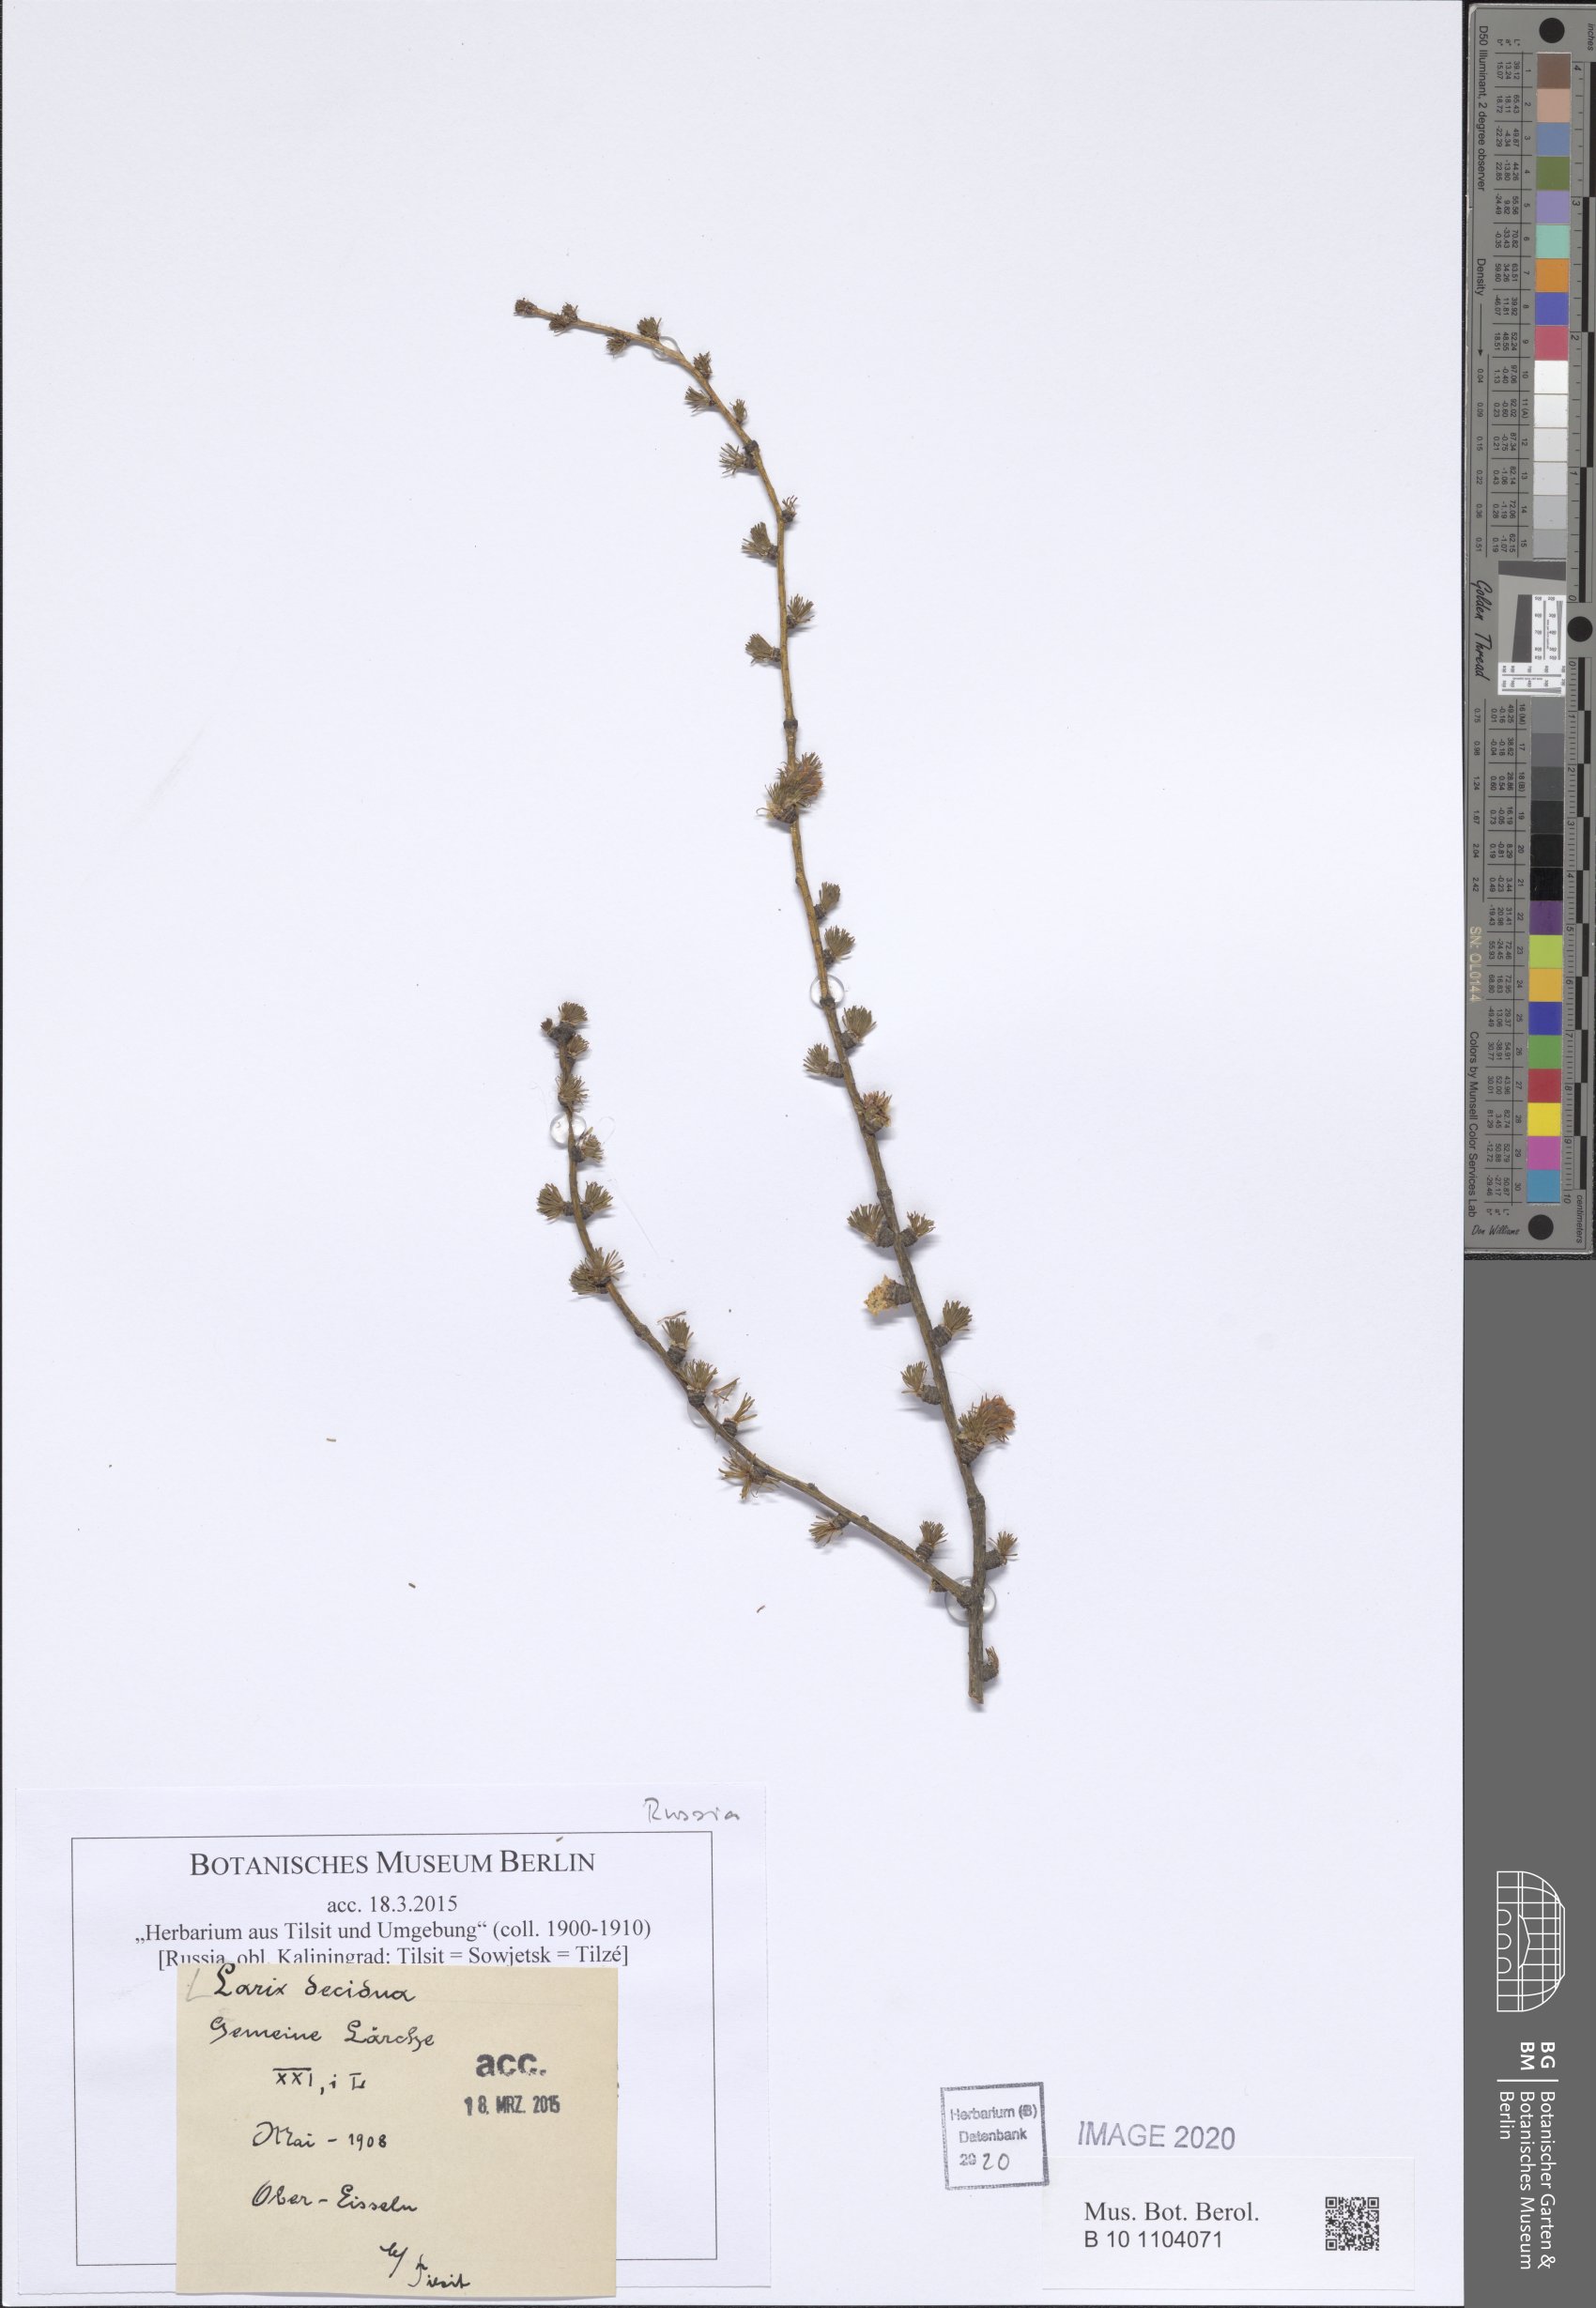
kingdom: Plantae
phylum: Tracheophyta
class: Pinopsida
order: Pinales
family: Pinaceae
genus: Larix
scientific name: Larix decidua
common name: European larch
